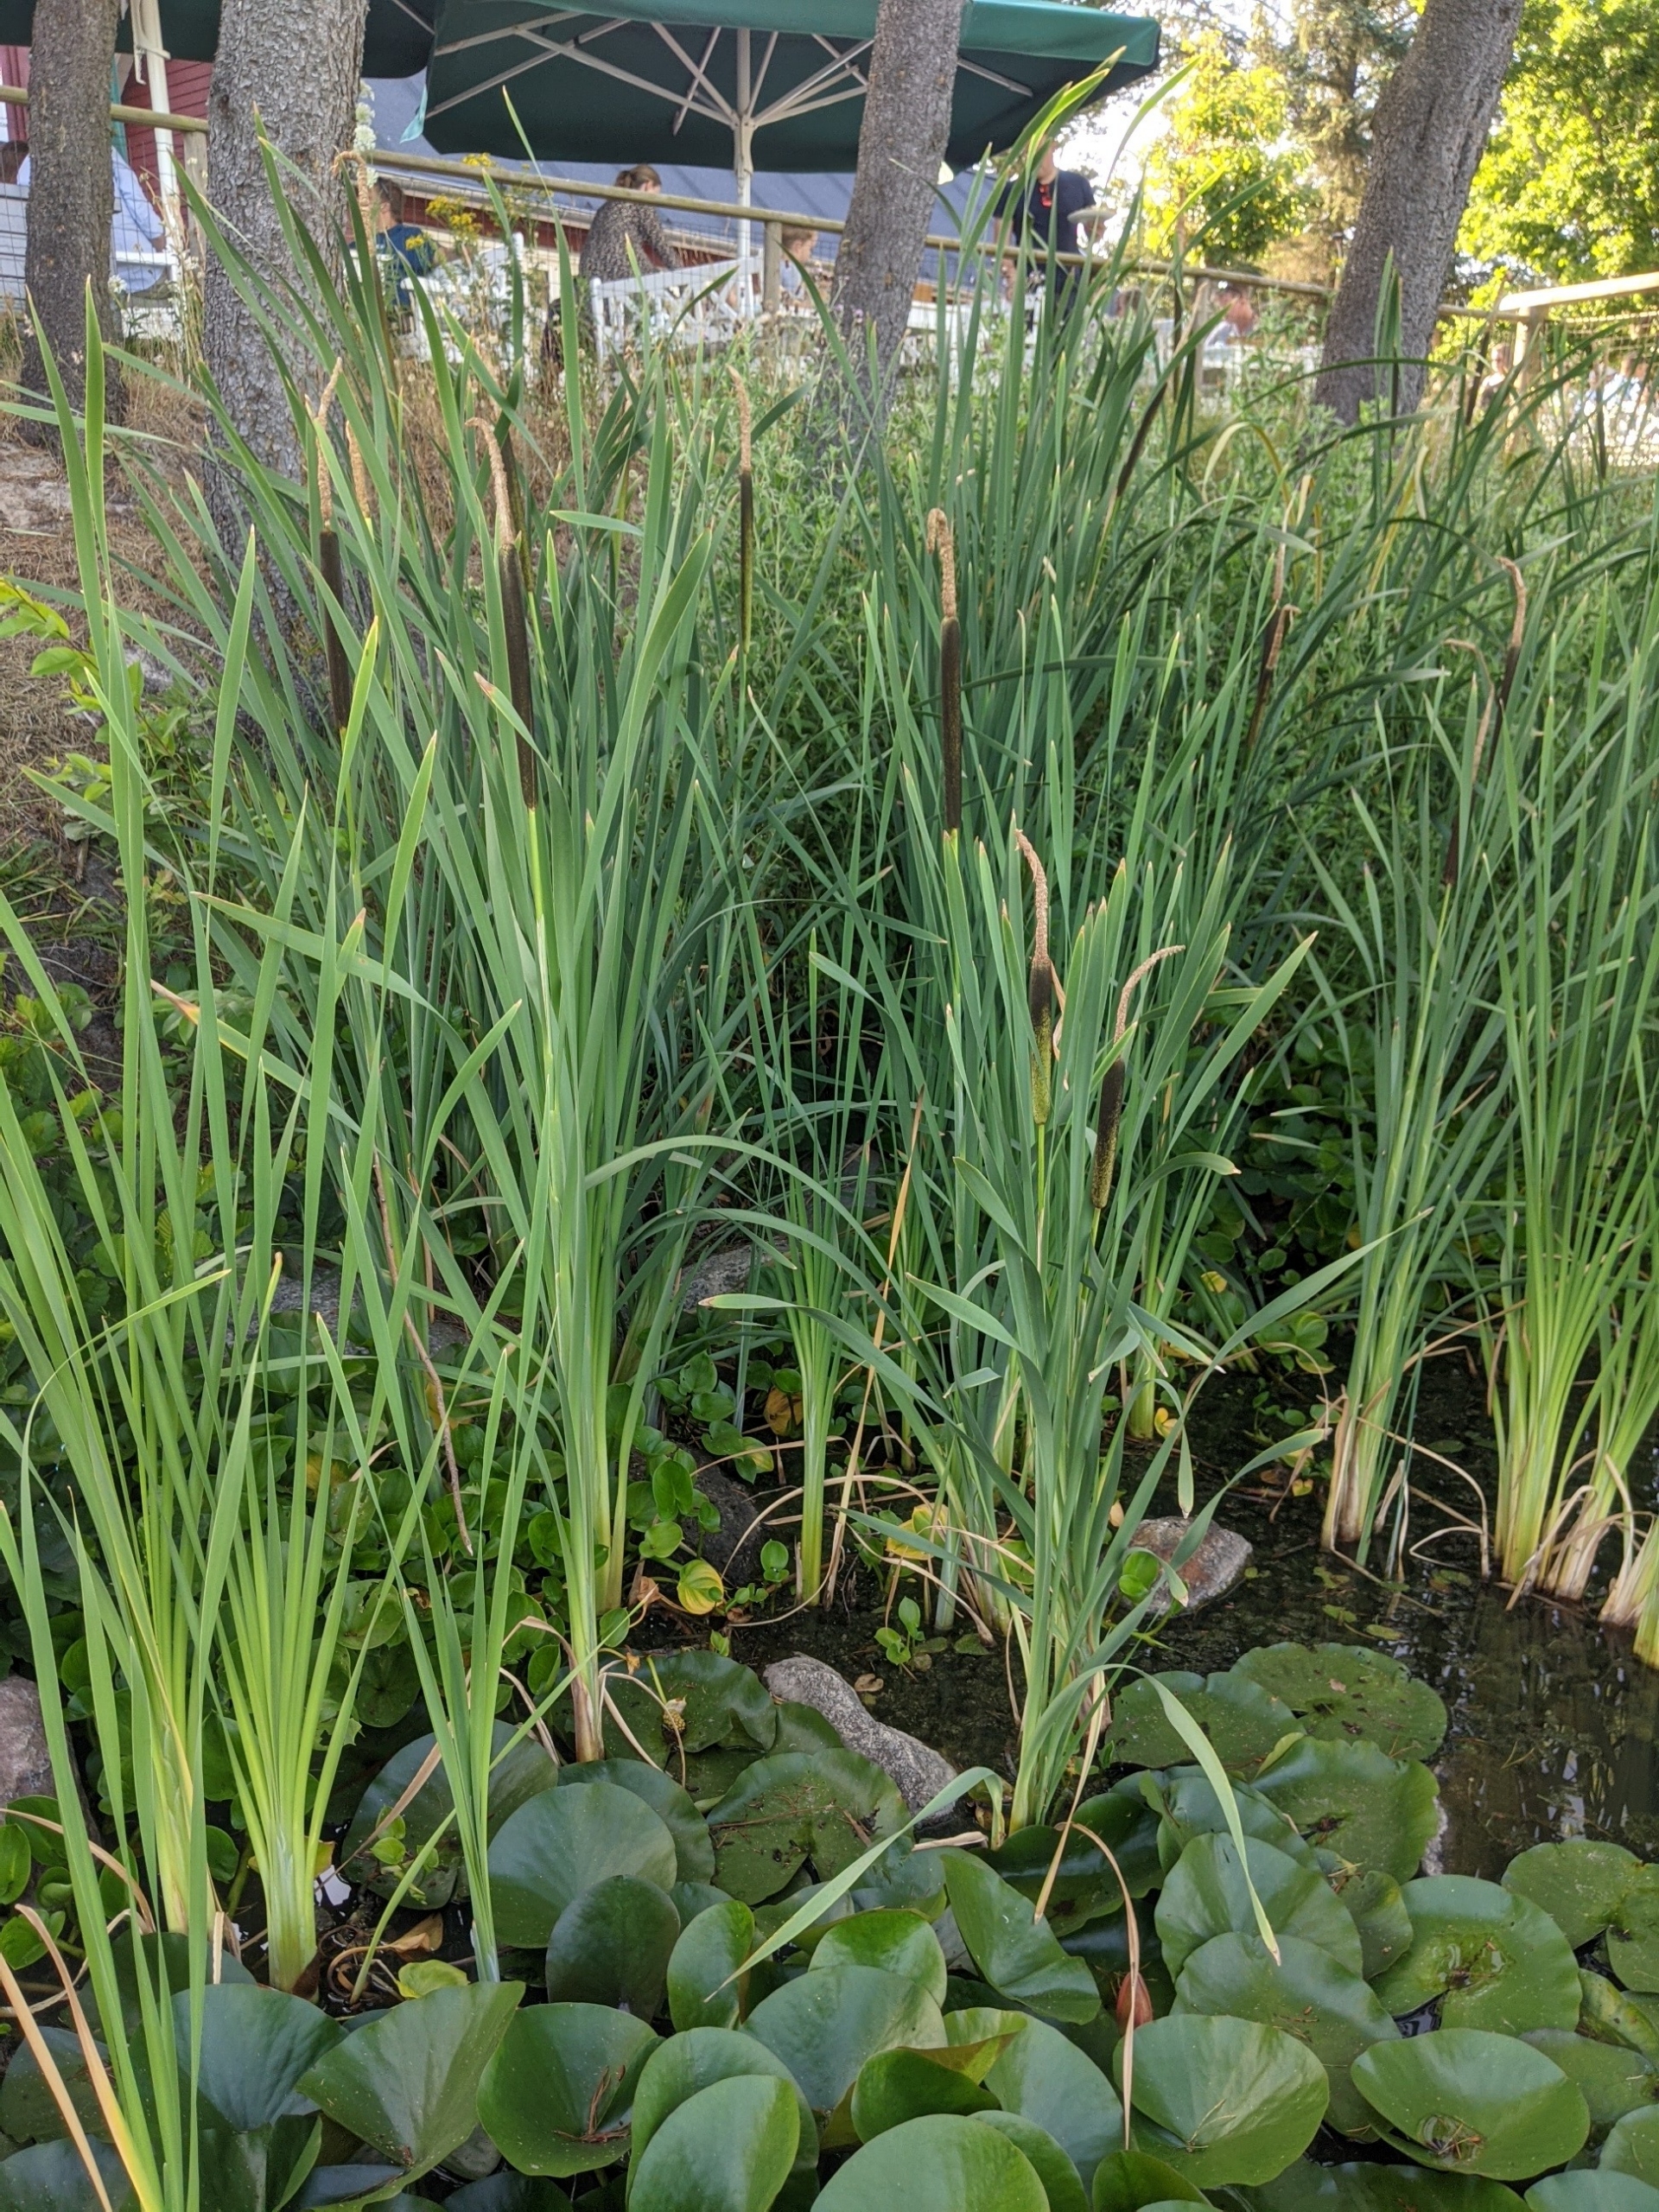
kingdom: Plantae
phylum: Tracheophyta
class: Liliopsida
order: Poales
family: Typhaceae
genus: Typha
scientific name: Typha latifolia
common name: Bredbladet dunhammer
